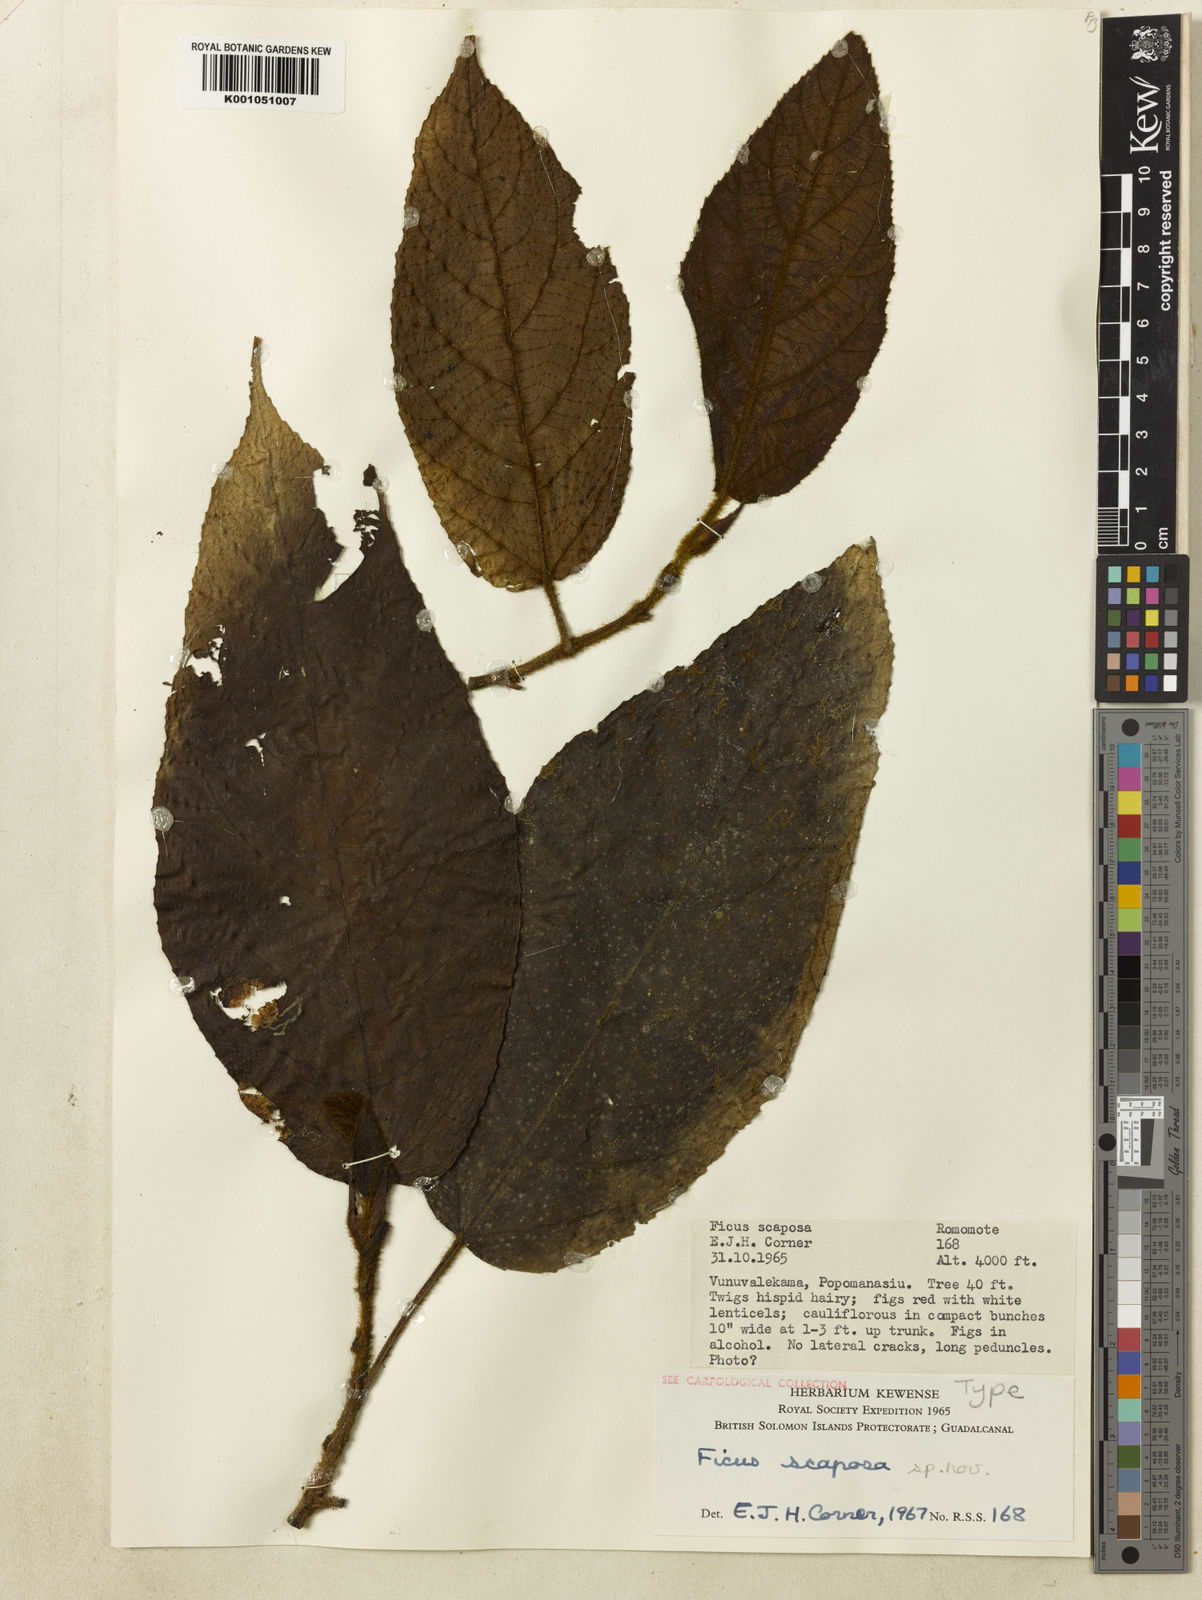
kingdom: Plantae
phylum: Tracheophyta
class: Magnoliopsida
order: Rosales
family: Moraceae
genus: Ficus
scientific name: Ficus scaposa
